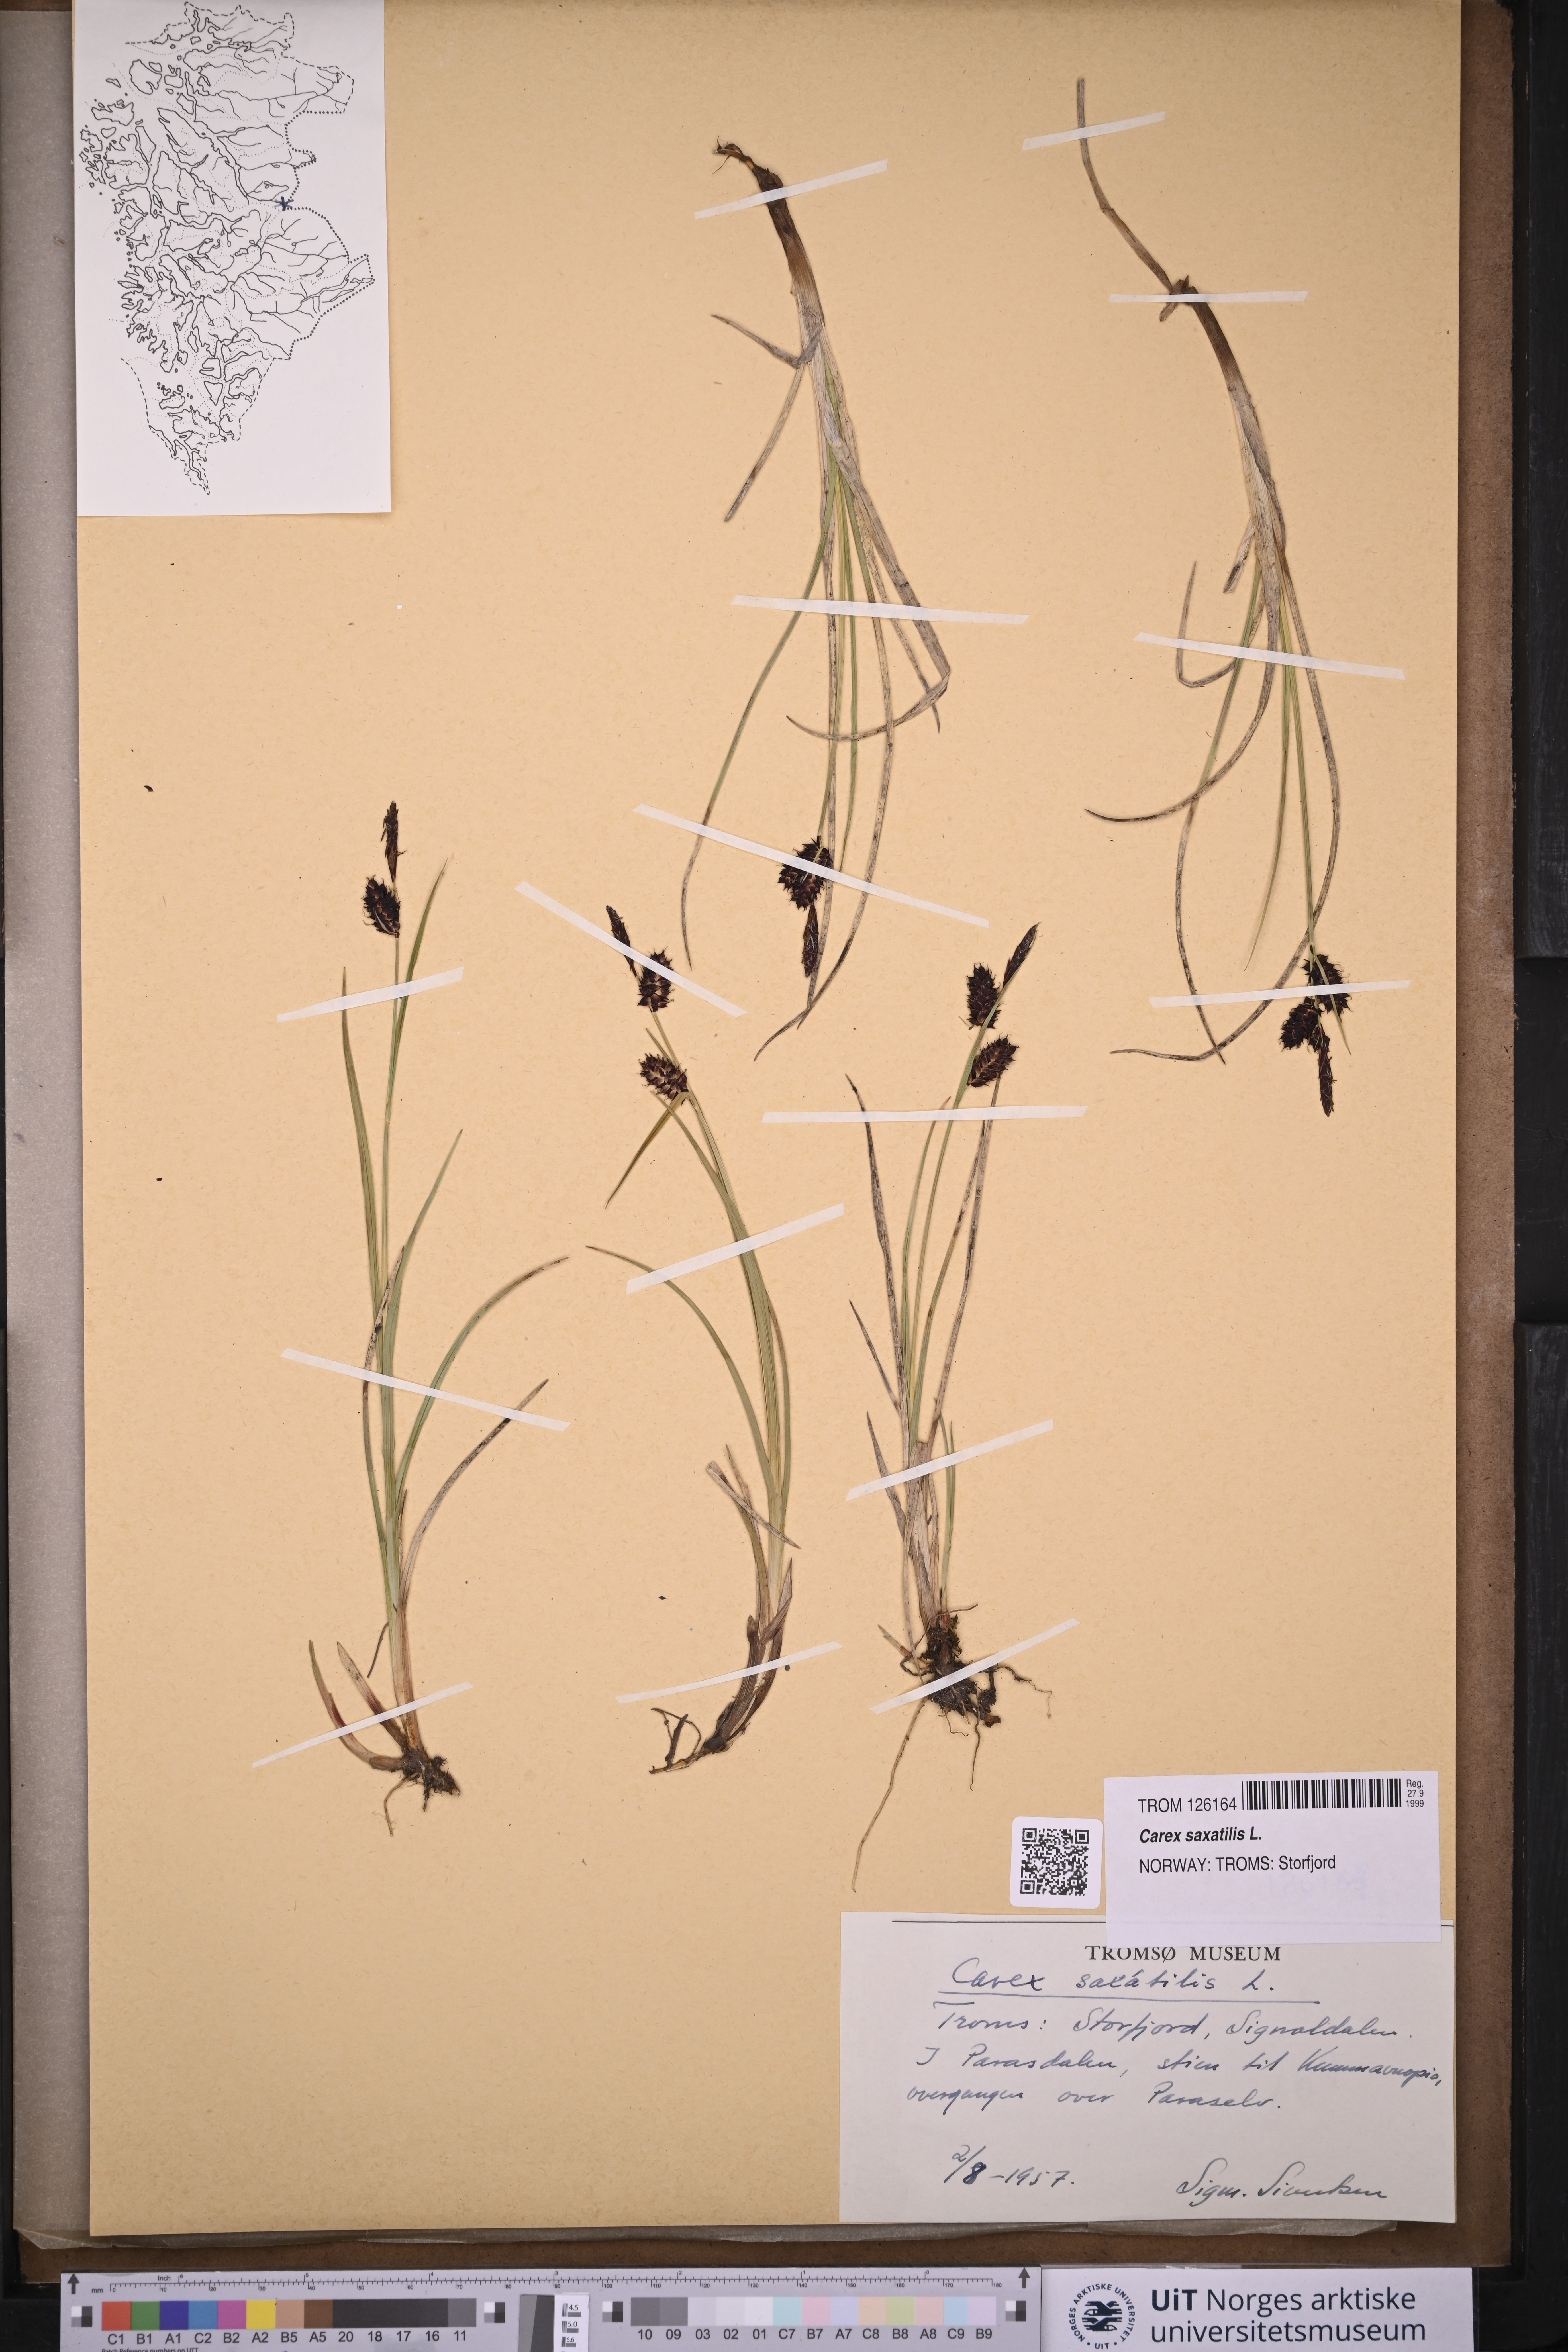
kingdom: Plantae
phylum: Tracheophyta
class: Liliopsida
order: Poales
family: Cyperaceae
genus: Carex
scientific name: Carex saxatilis
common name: Russet sedge
